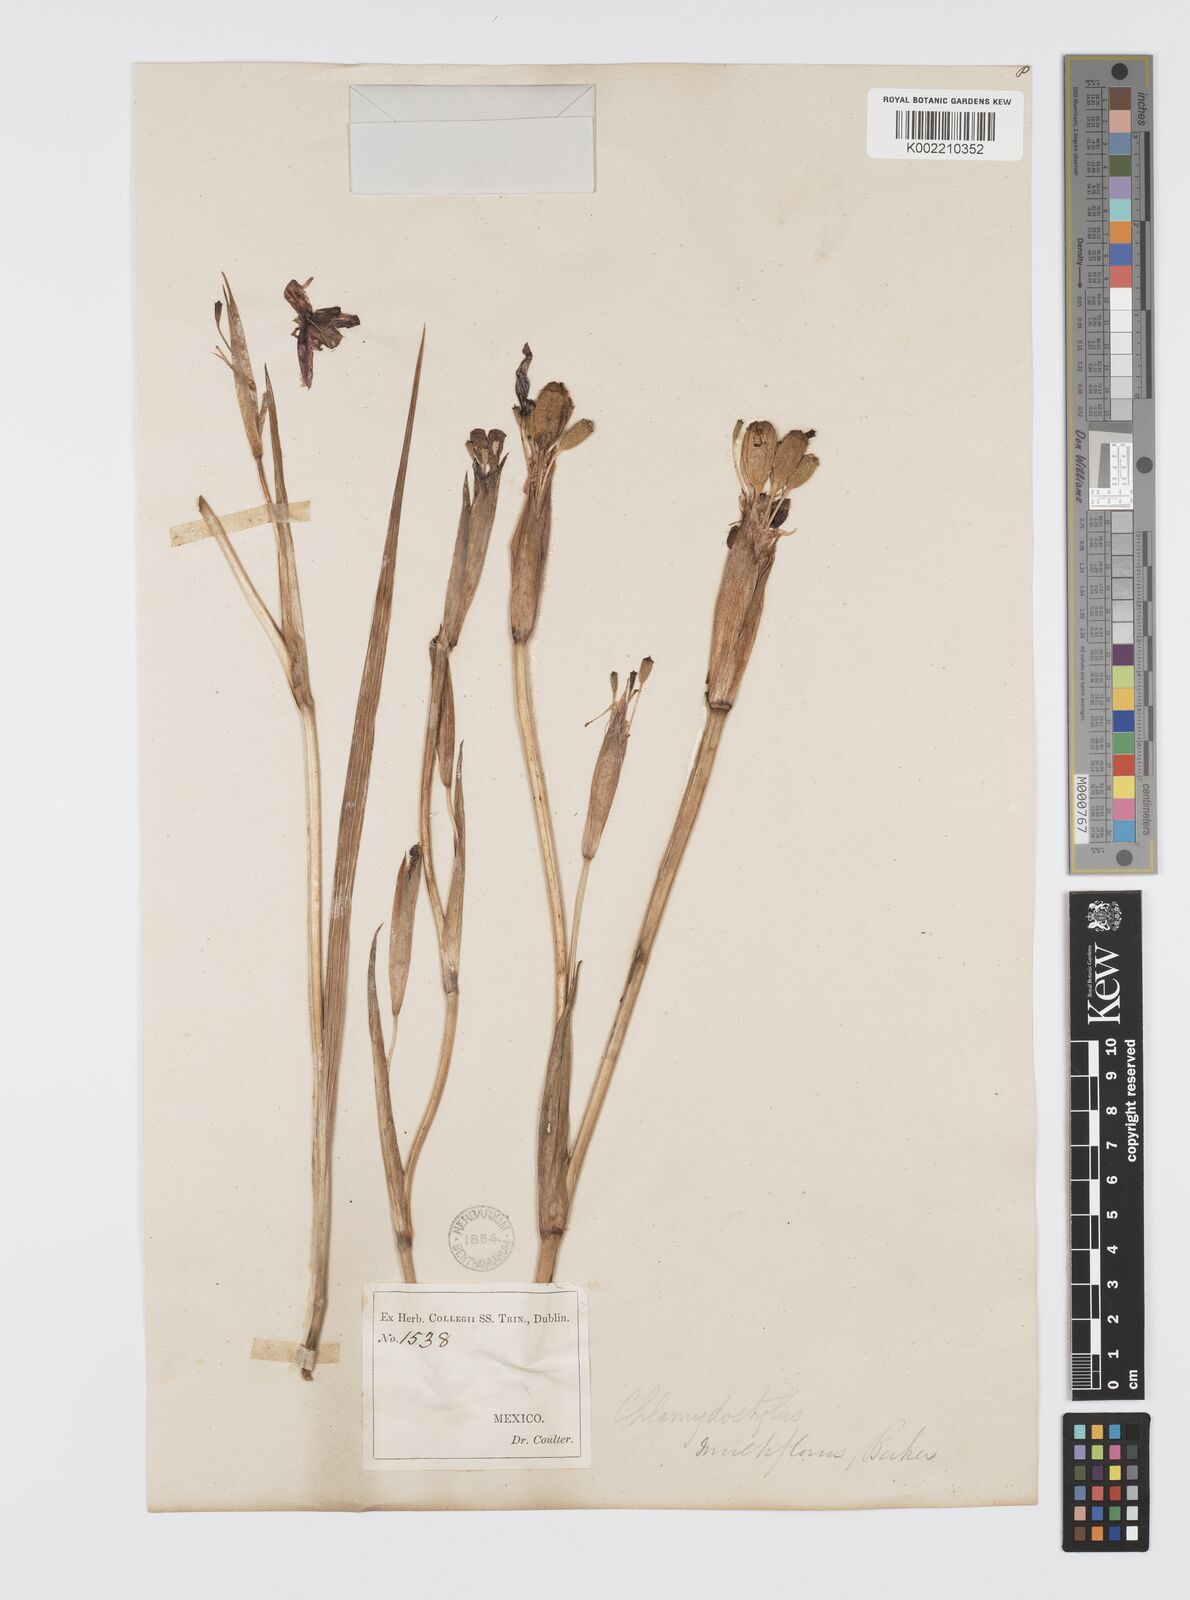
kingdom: Plantae
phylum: Tracheophyta
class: Liliopsida
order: Asparagales
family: Iridaceae
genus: Tigridia
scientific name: Tigridia multiflora
